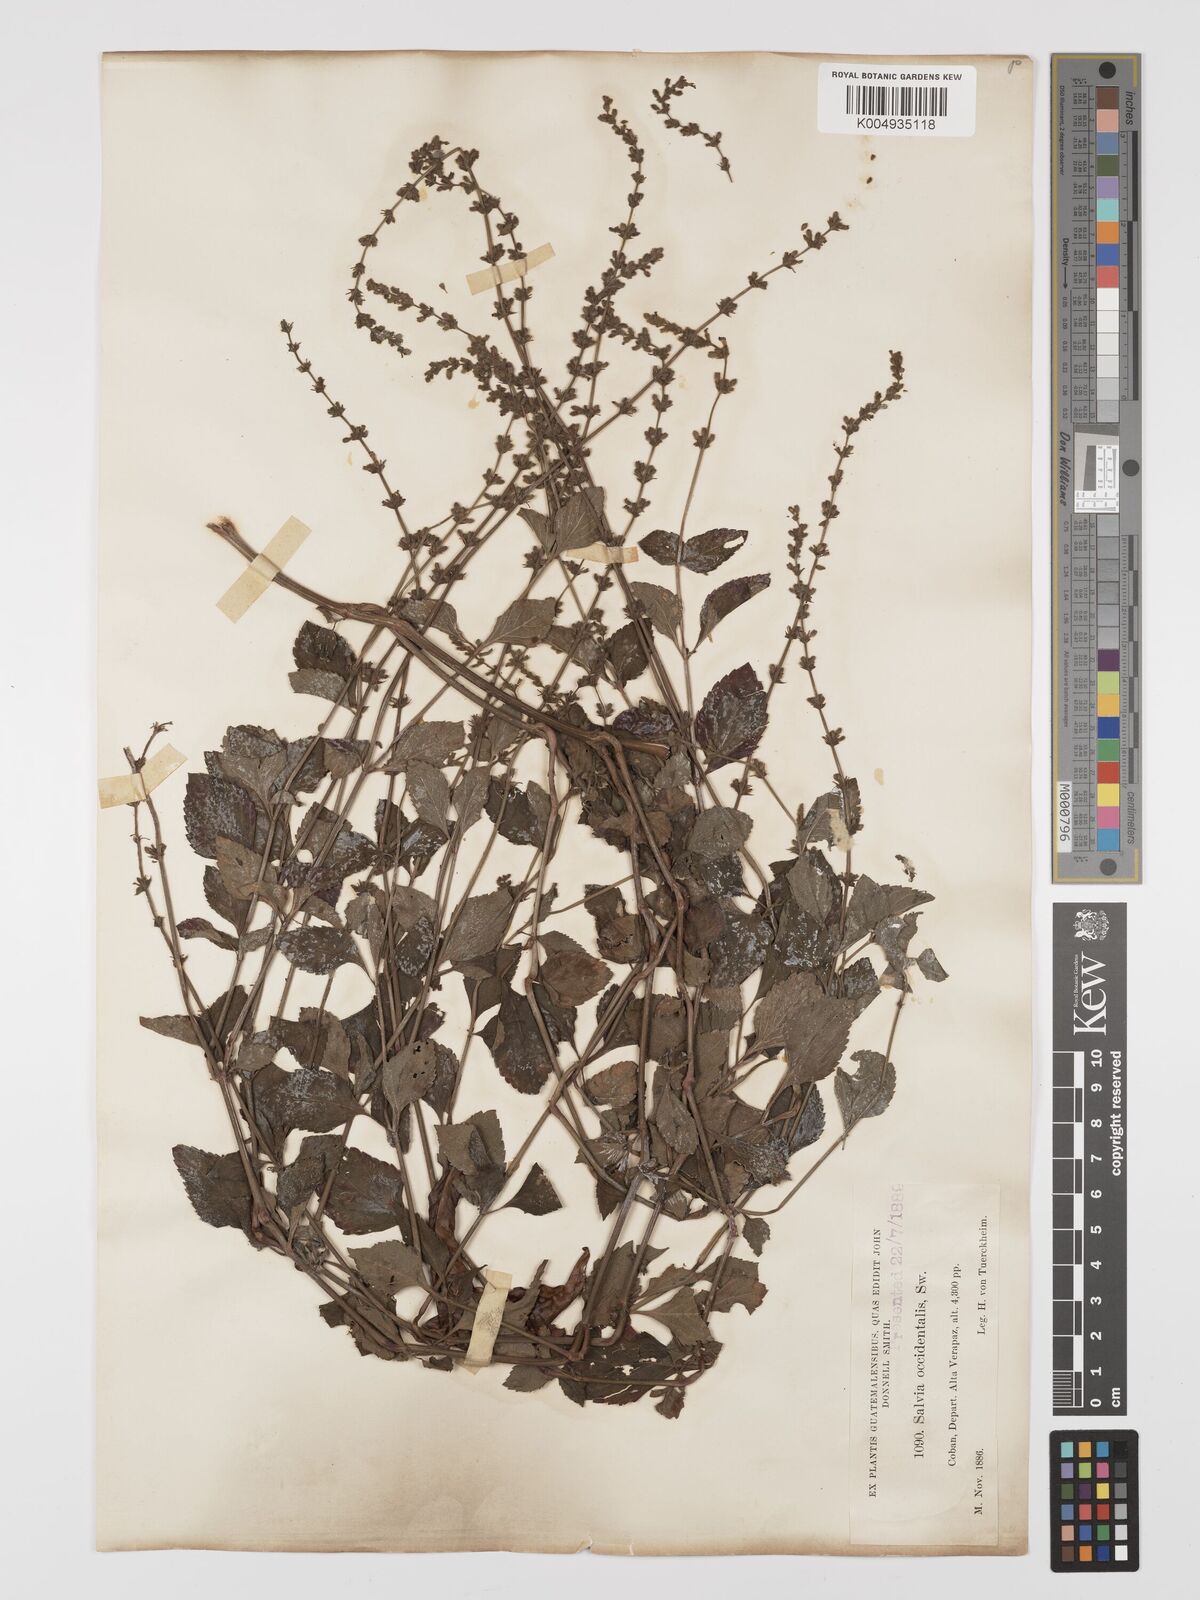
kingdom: Plantae
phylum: Tracheophyta
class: Magnoliopsida
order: Lamiales
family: Lamiaceae
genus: Salvia
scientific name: Salvia occidentalis
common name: West indian sage
